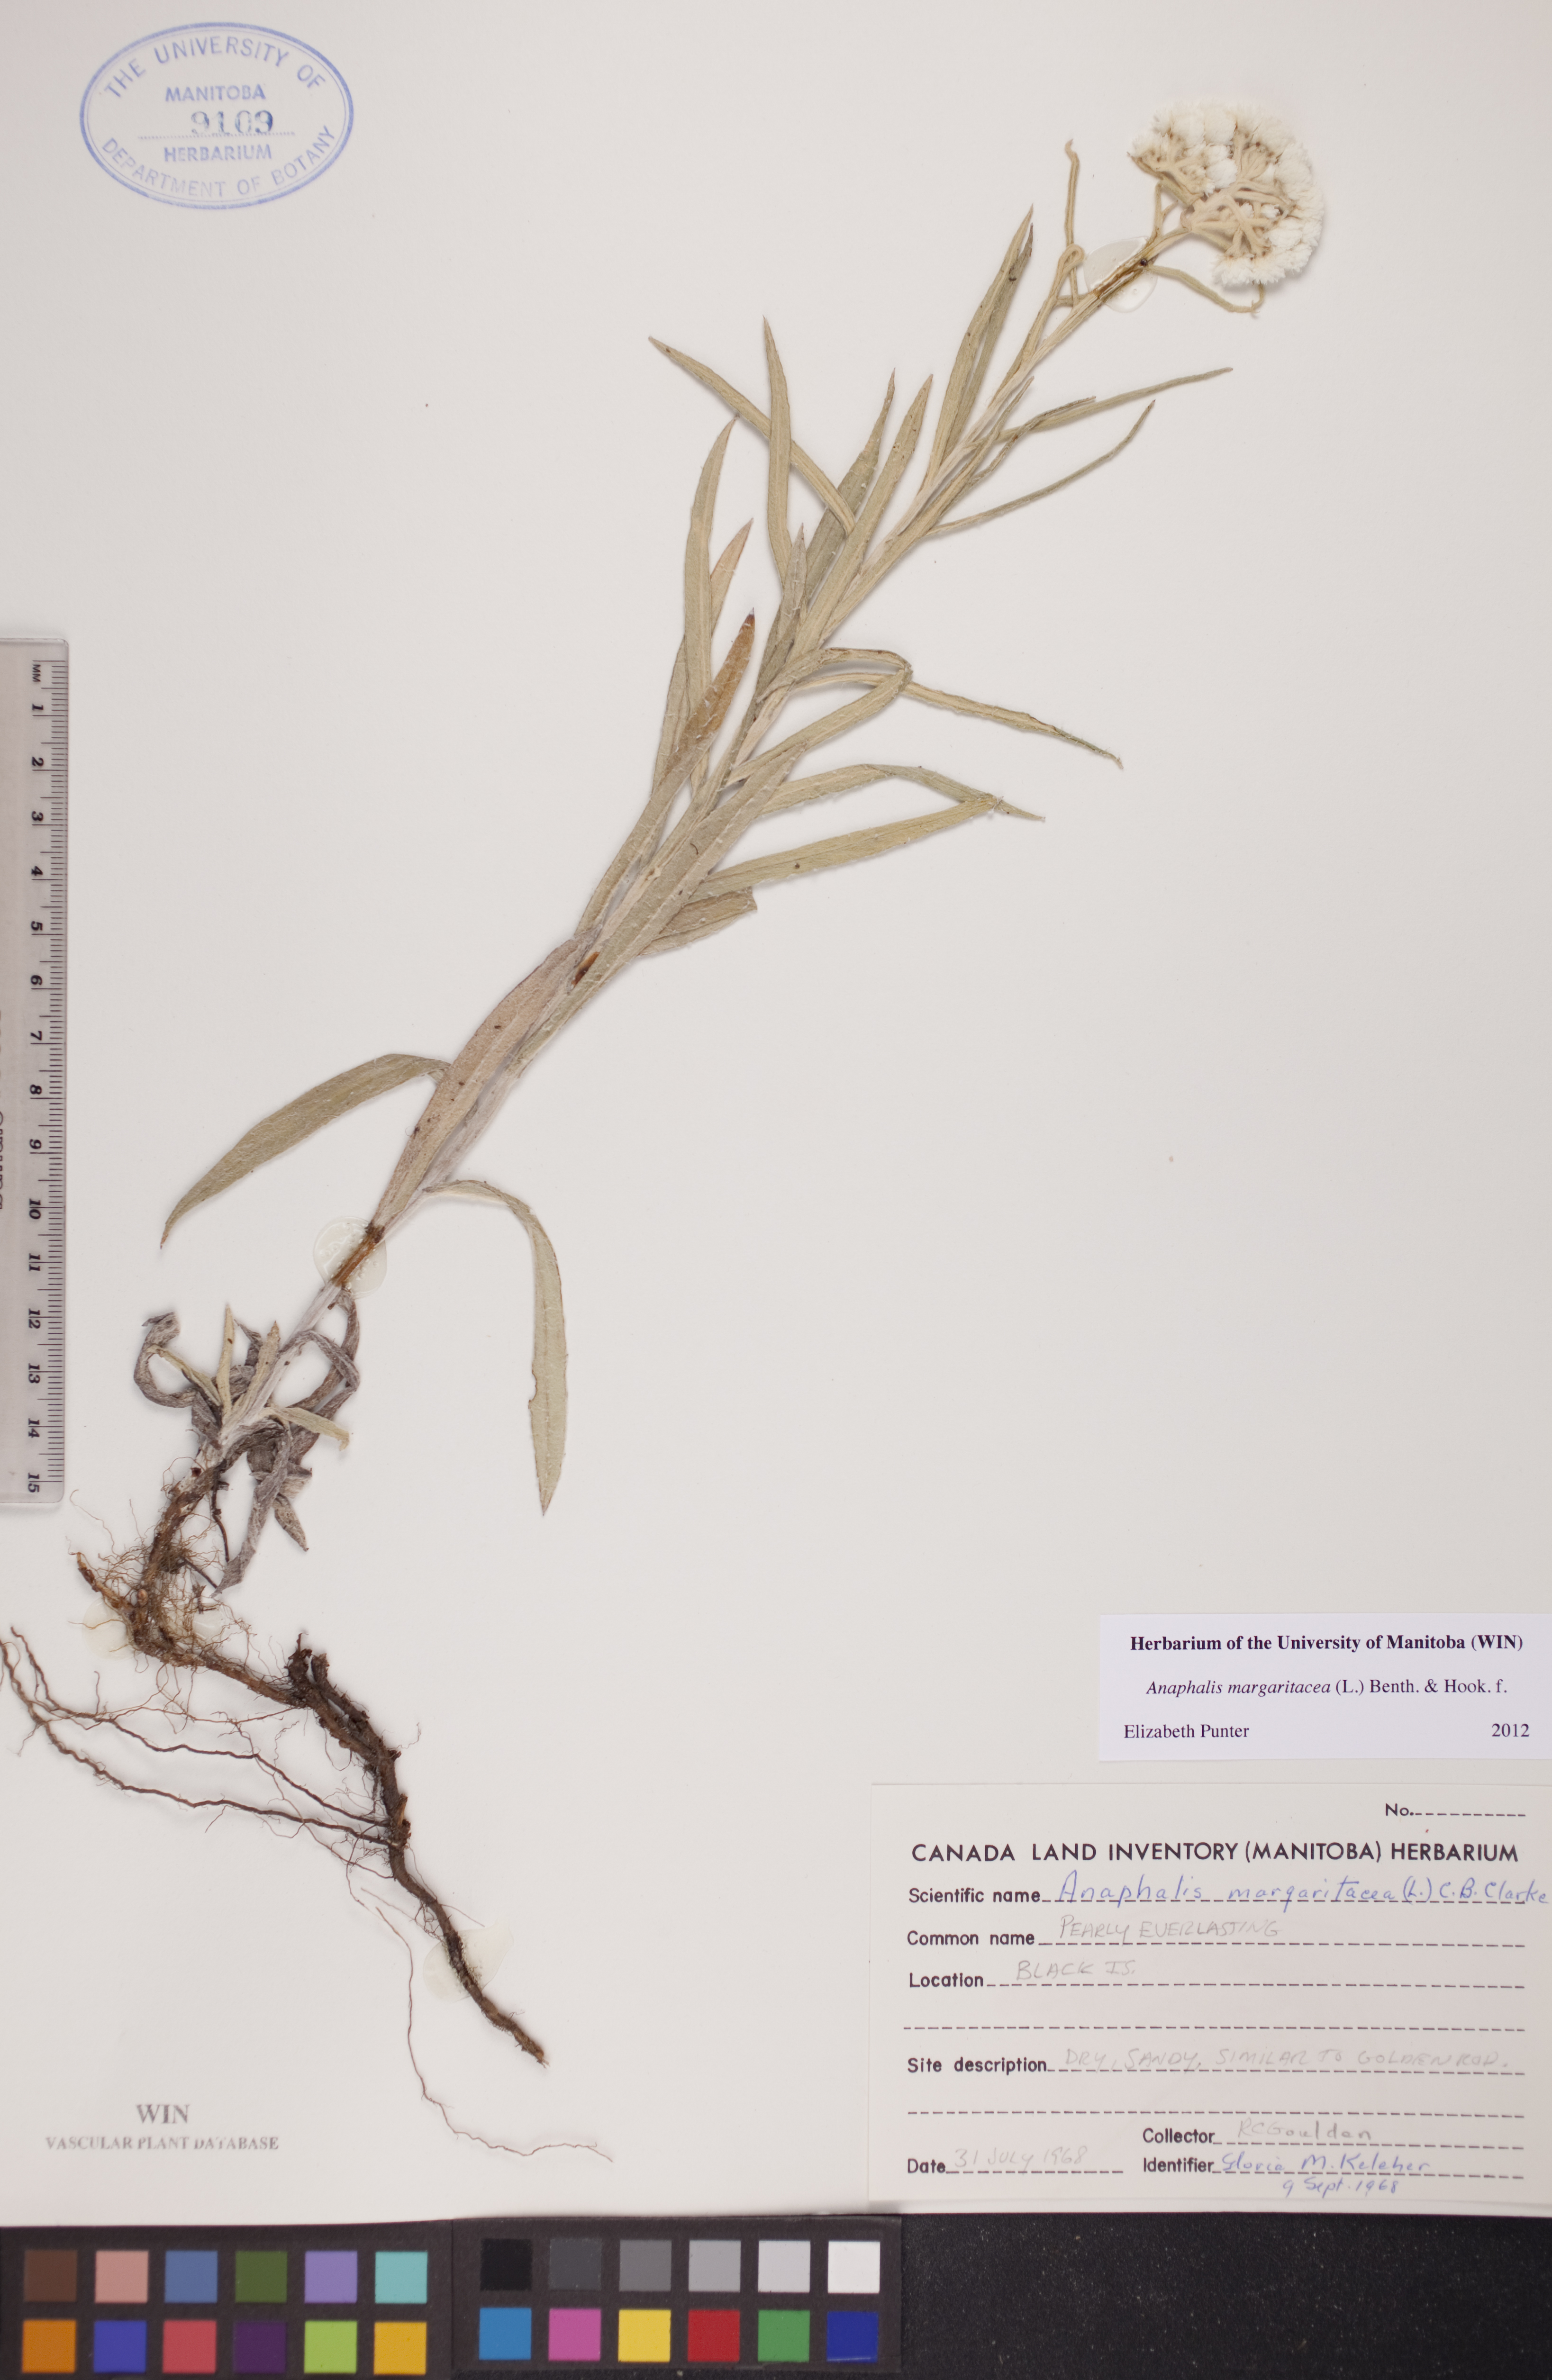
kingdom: Plantae
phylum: Tracheophyta
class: Magnoliopsida
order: Asterales
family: Asteraceae
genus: Anaphalis
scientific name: Anaphalis margaritacea
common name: Pearly everlasting
